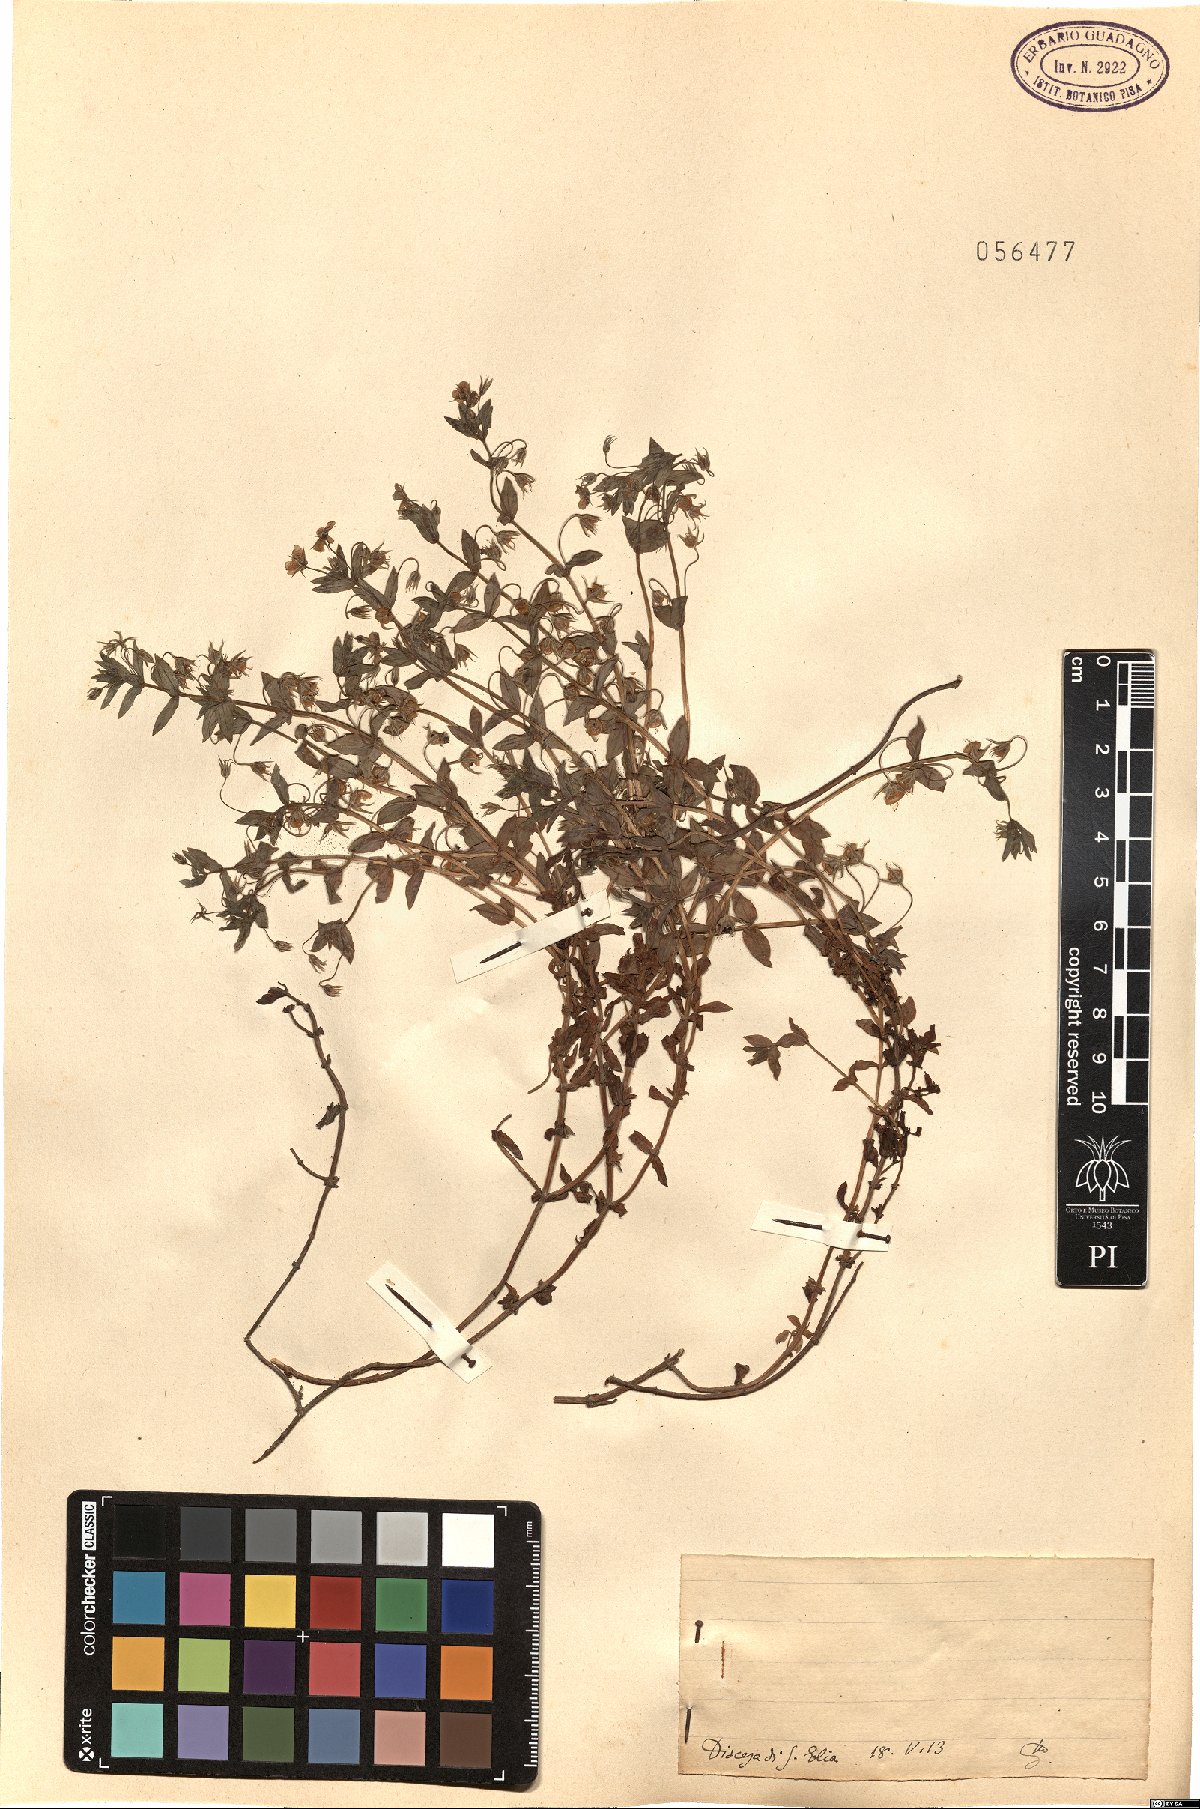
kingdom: Plantae
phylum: Tracheophyta
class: Magnoliopsida
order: Ericales
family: Primulaceae
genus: Lysimachia
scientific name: Lysimachia Anagallis spec
